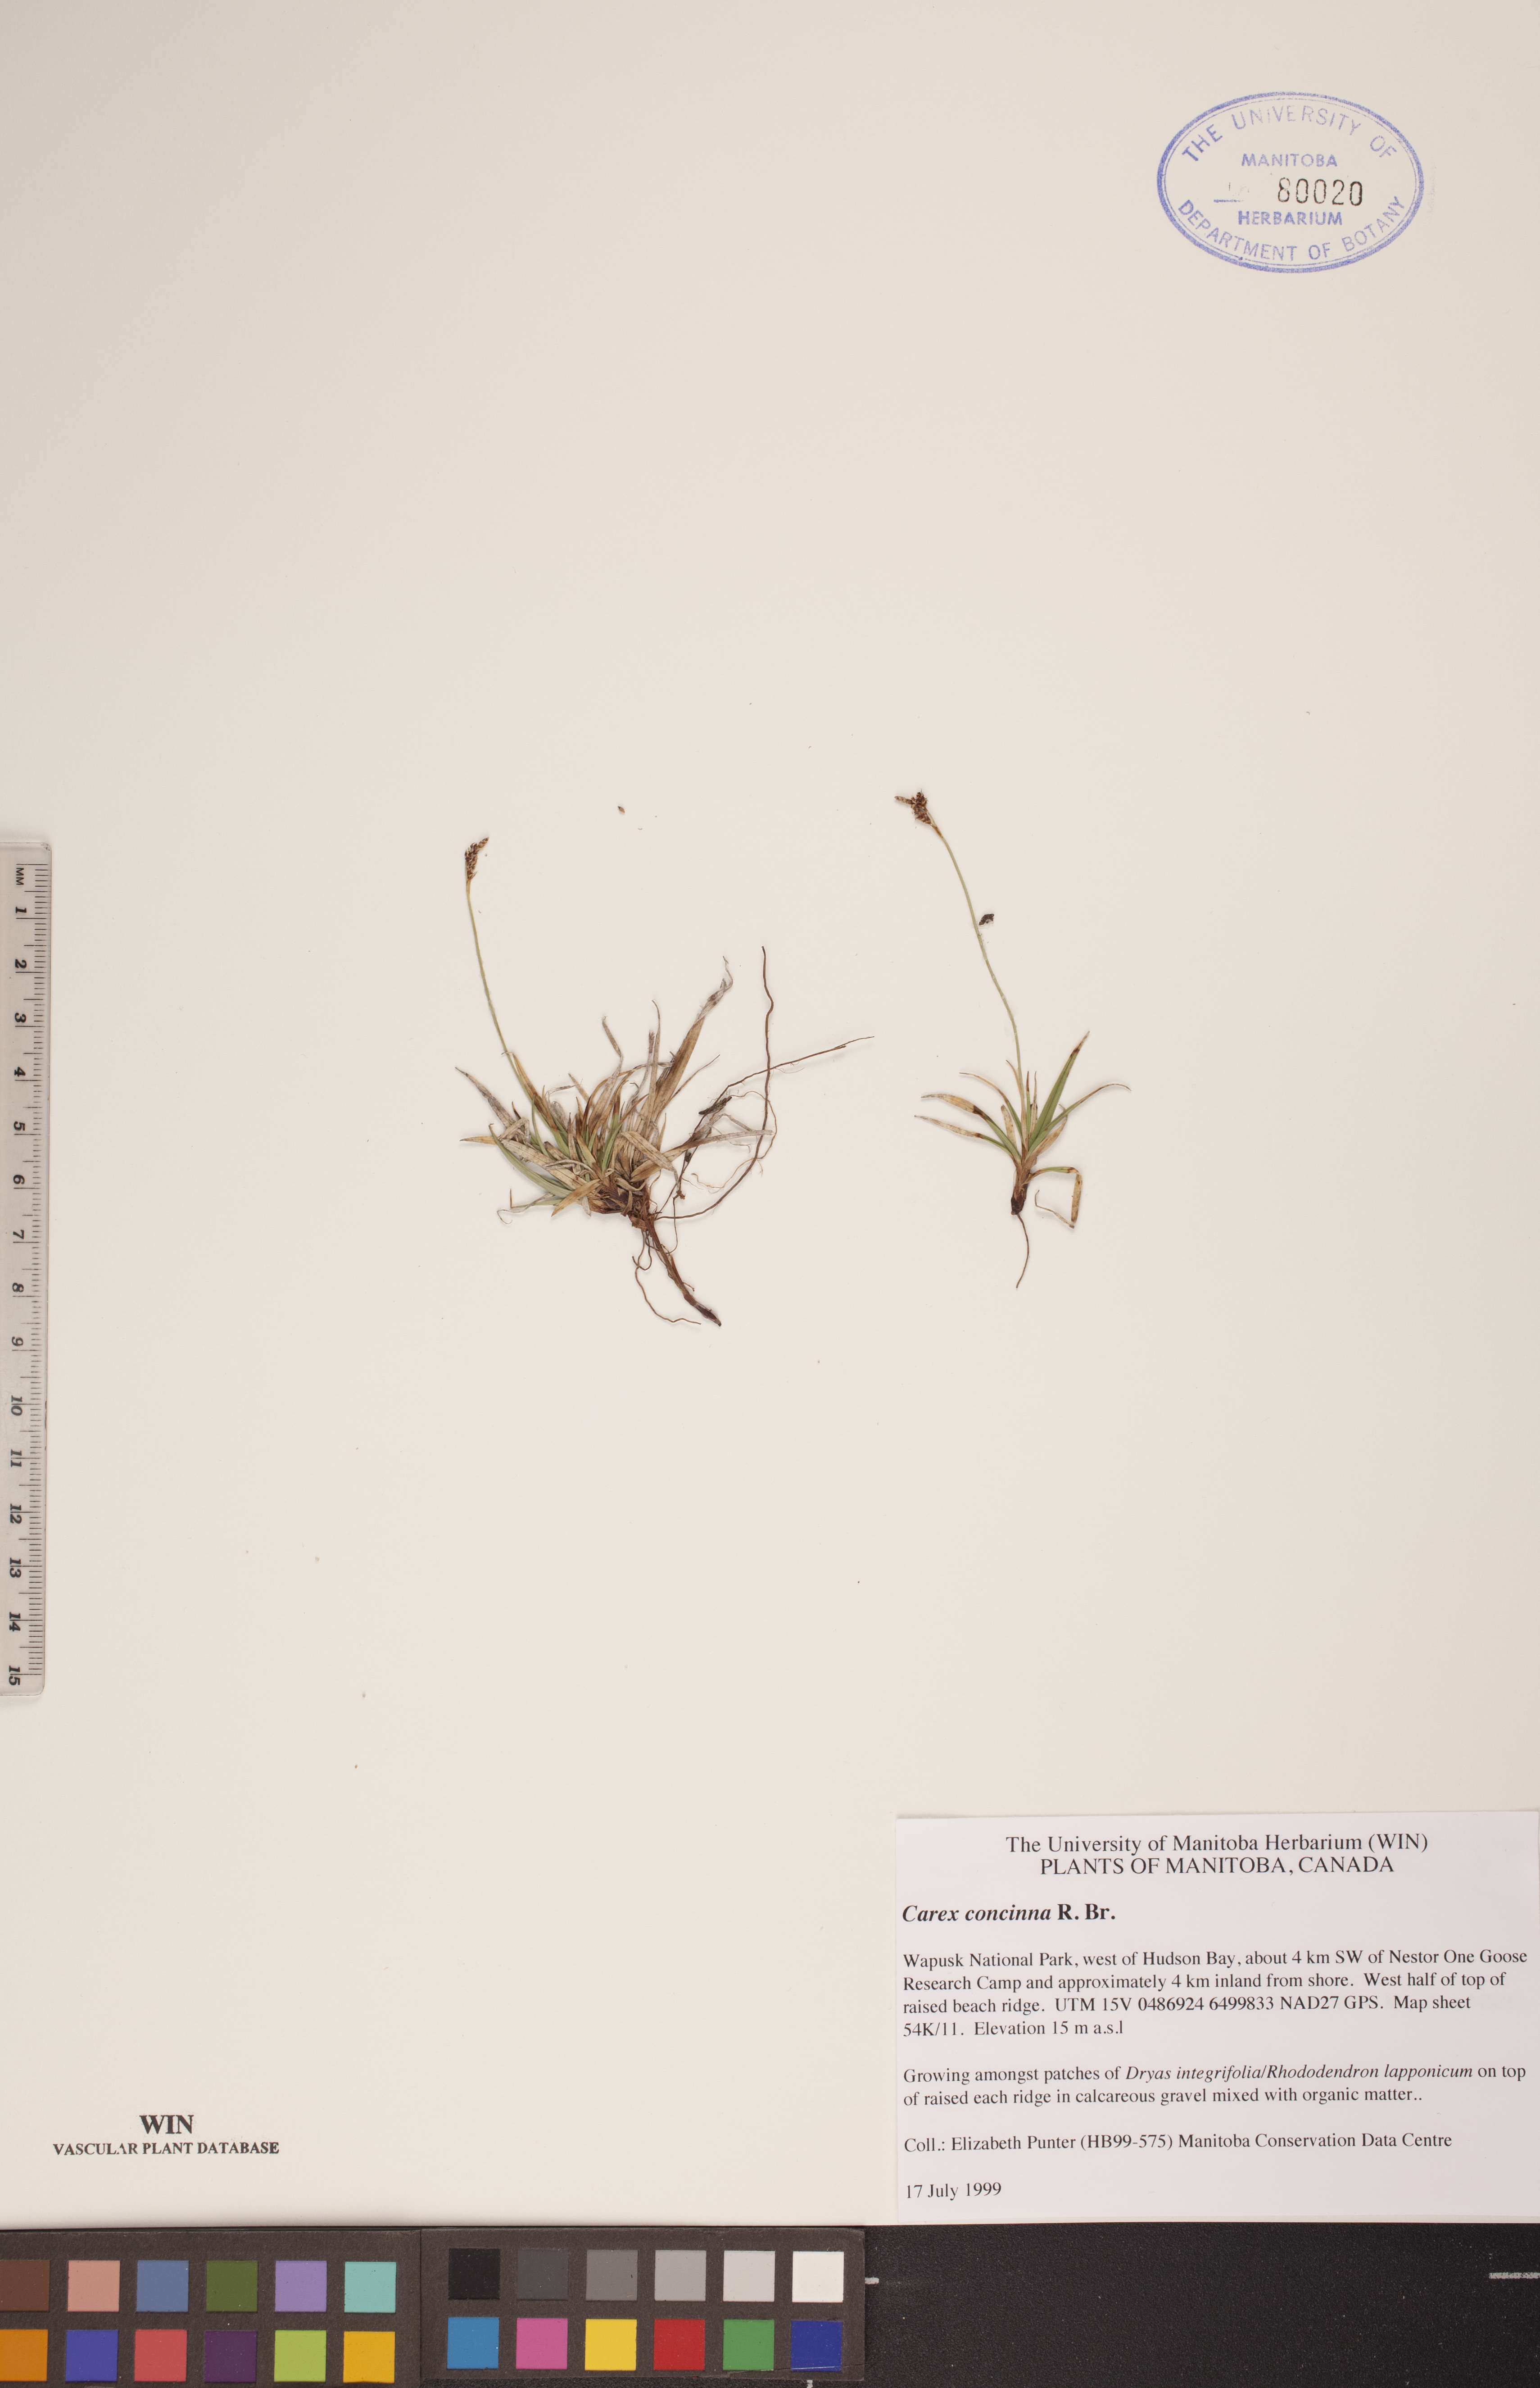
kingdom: Plantae
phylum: Tracheophyta
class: Liliopsida
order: Poales
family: Cyperaceae
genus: Carex
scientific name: Carex concinna
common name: Beautiful sedge
